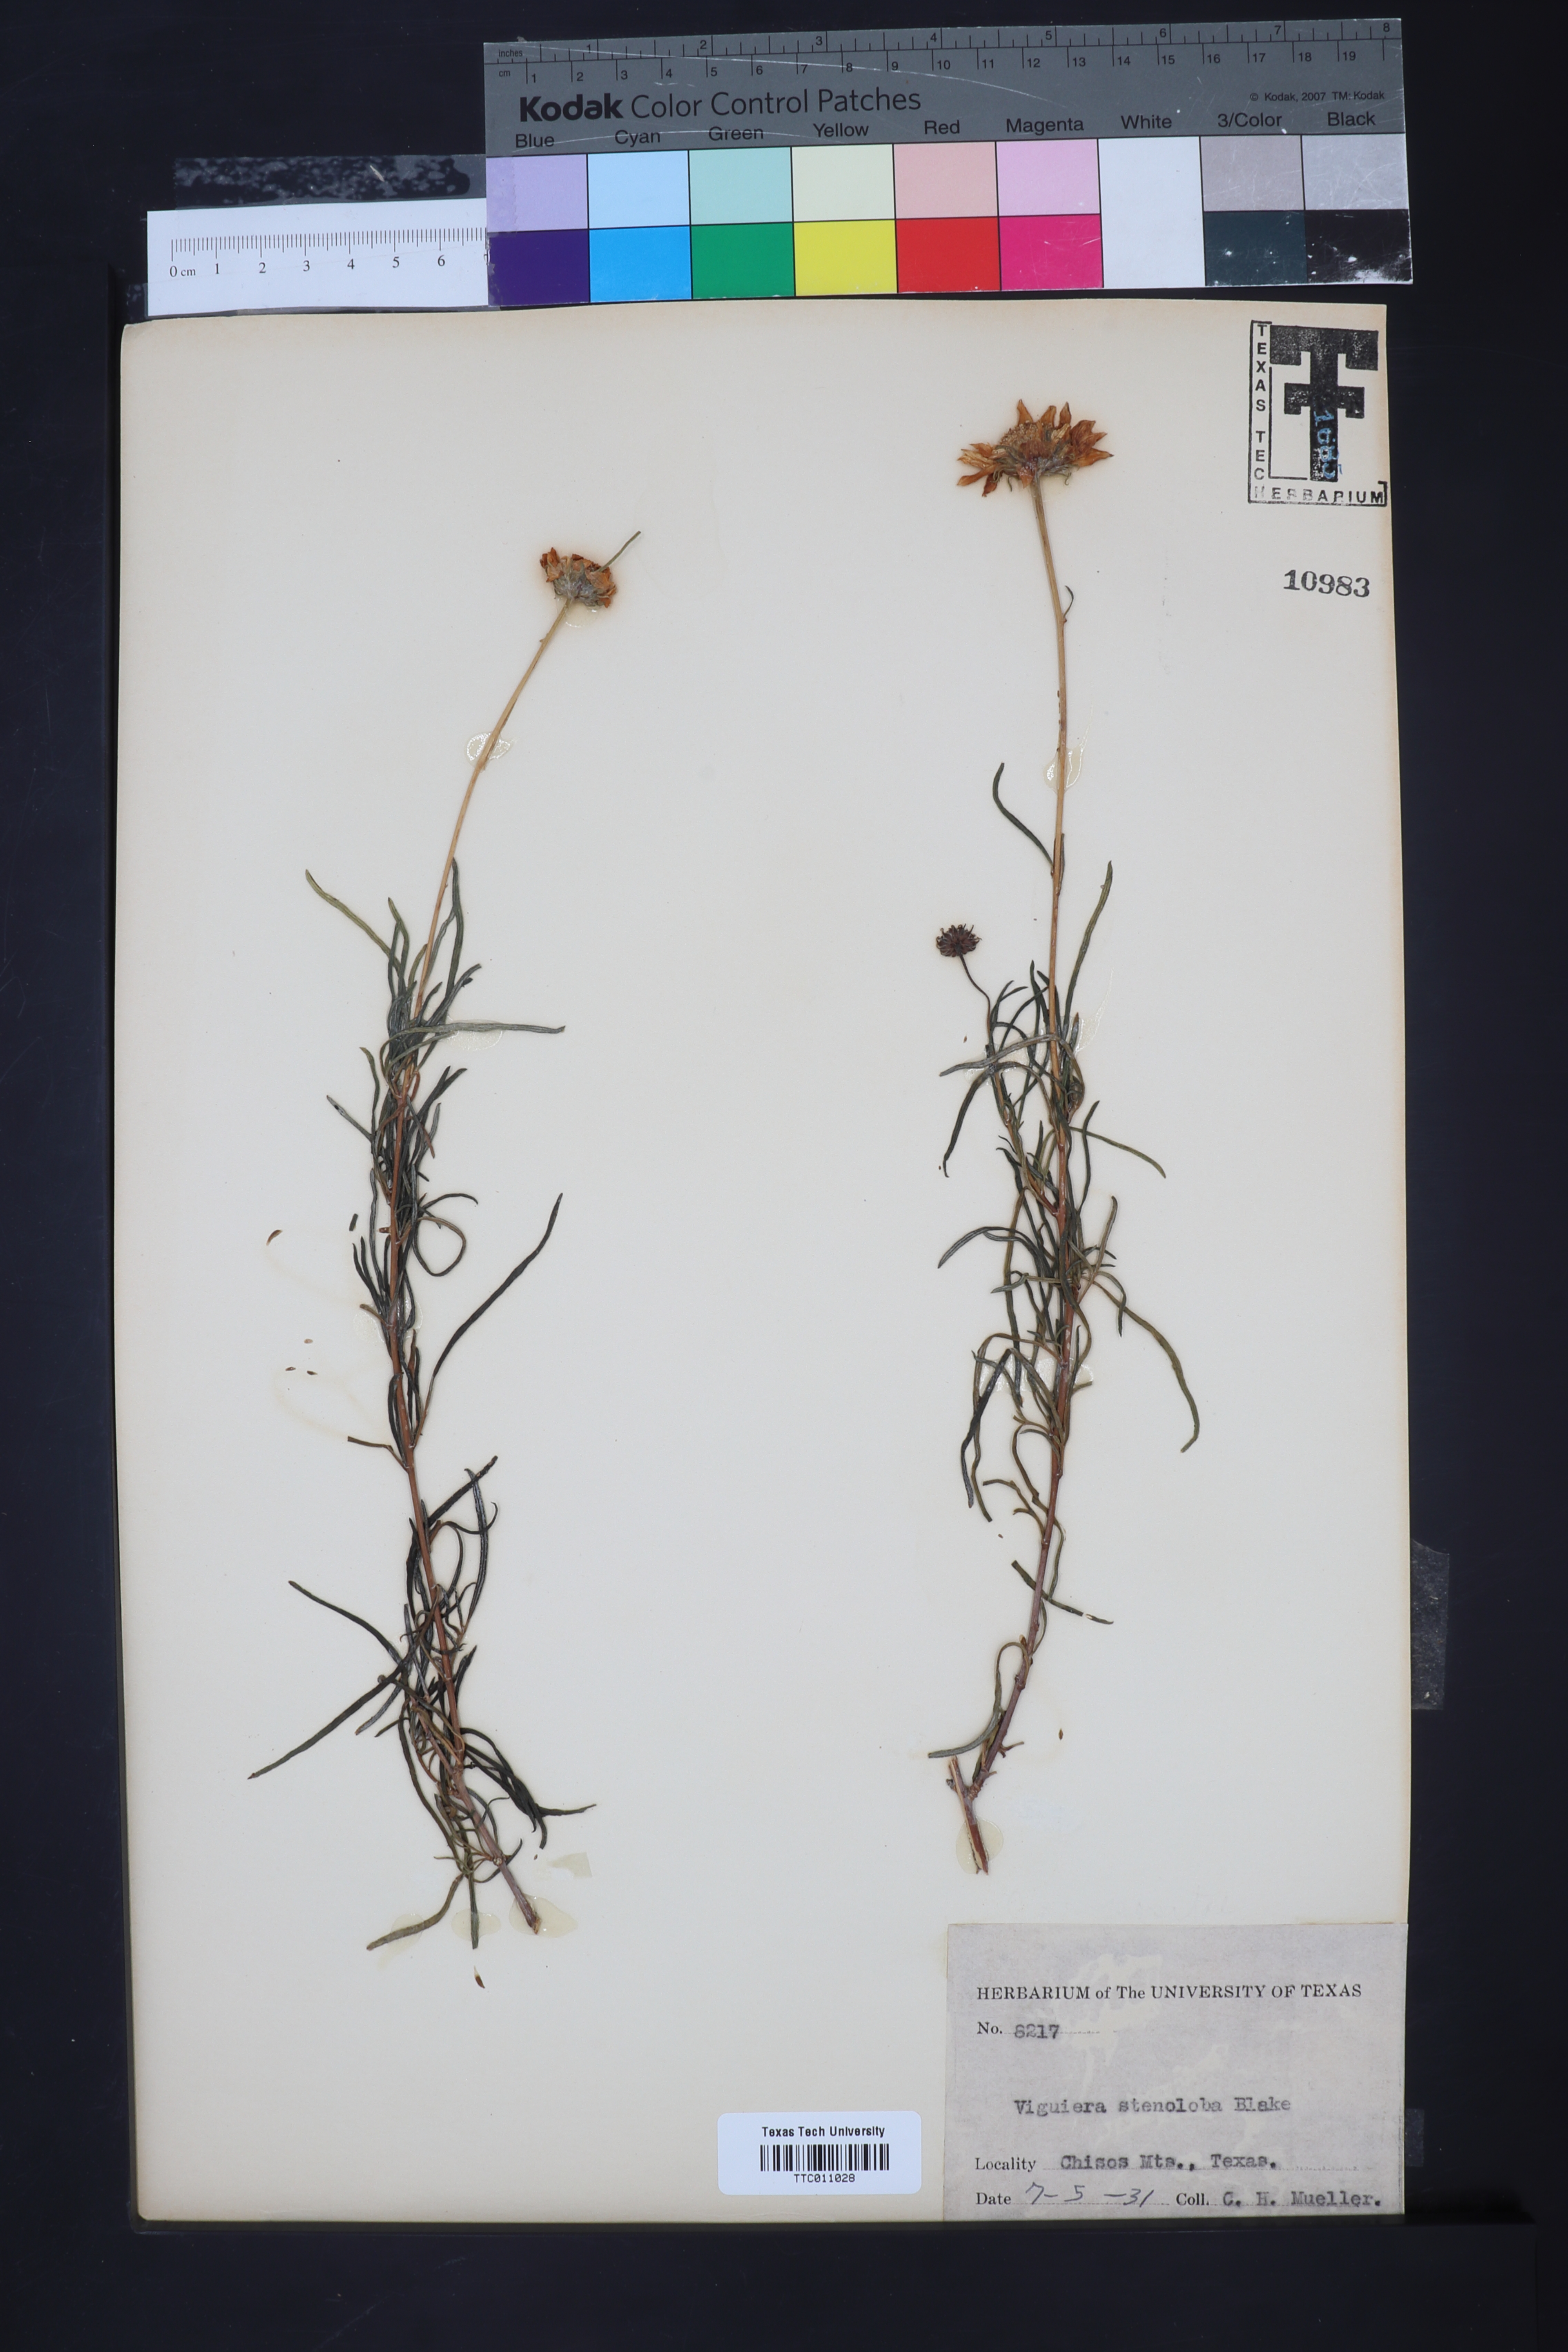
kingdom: Plantae
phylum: Tracheophyta
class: Magnoliopsida
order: Asterales
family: Asteraceae
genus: Sidneya
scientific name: Sidneya tenuifolia
